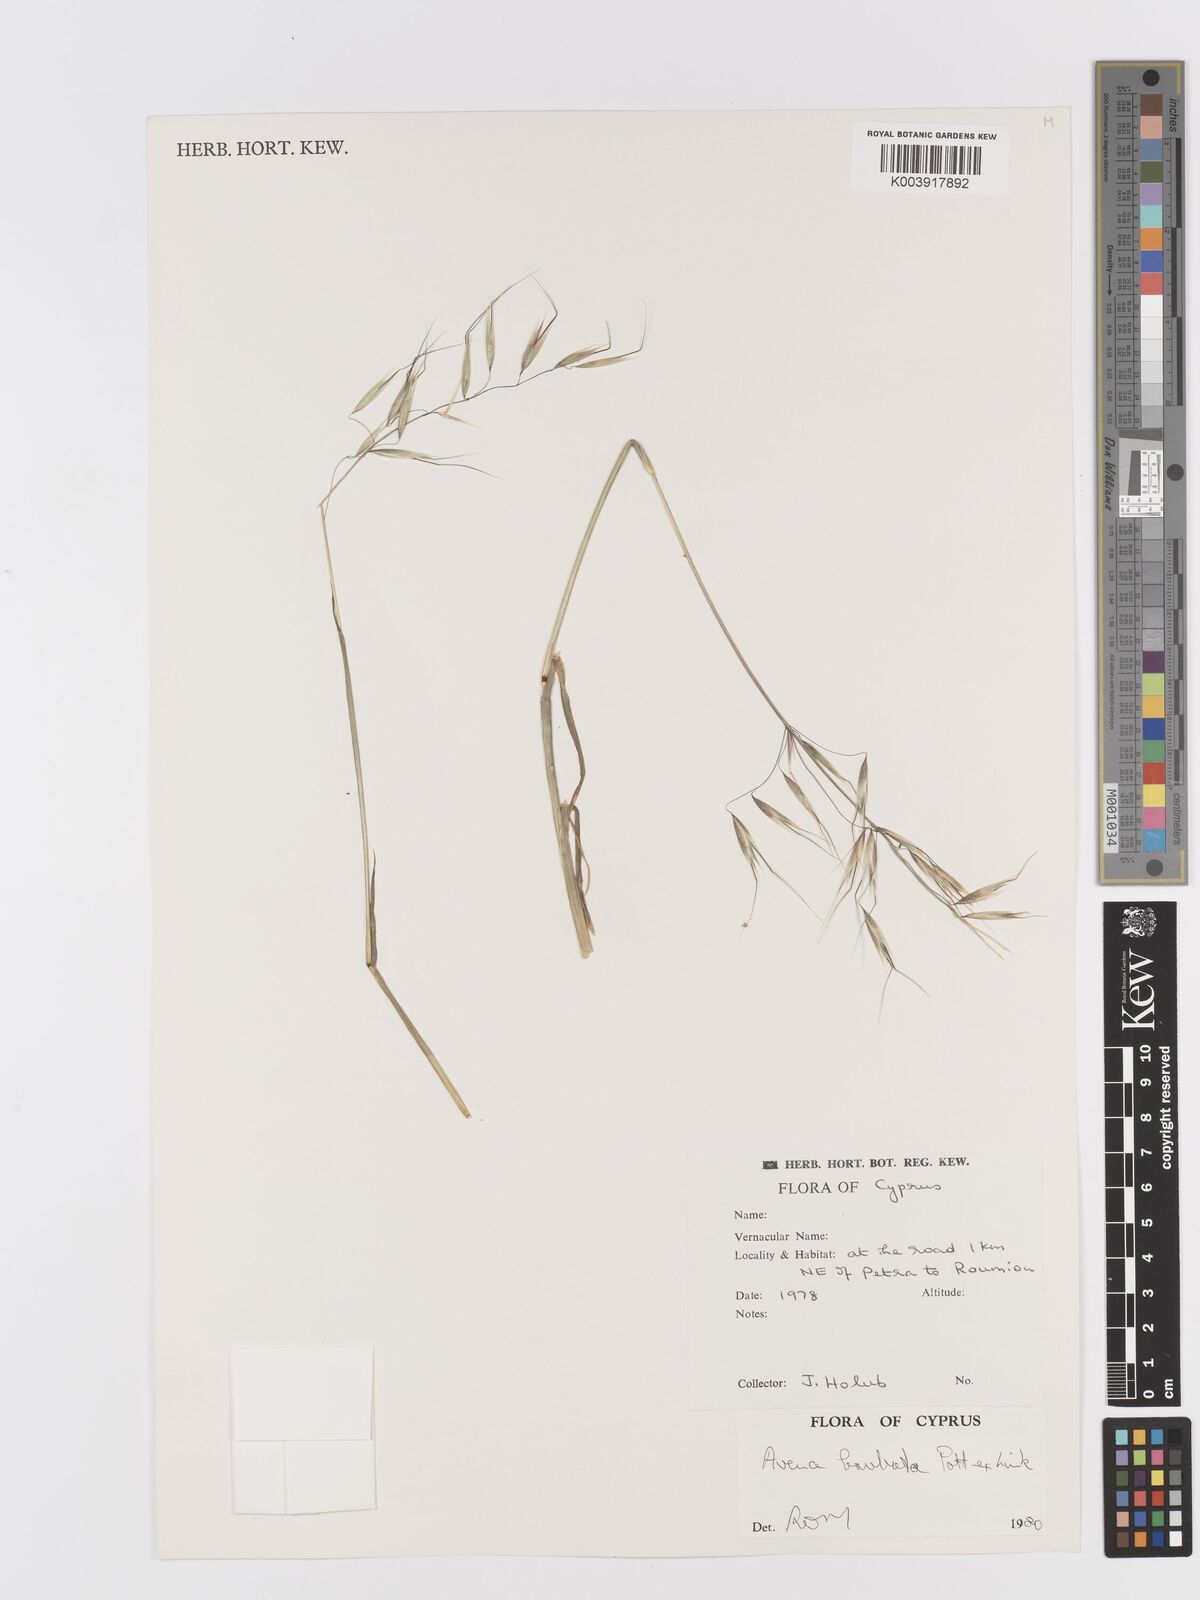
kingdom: Plantae
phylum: Tracheophyta
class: Liliopsida
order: Poales
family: Poaceae
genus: Avena
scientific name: Avena
